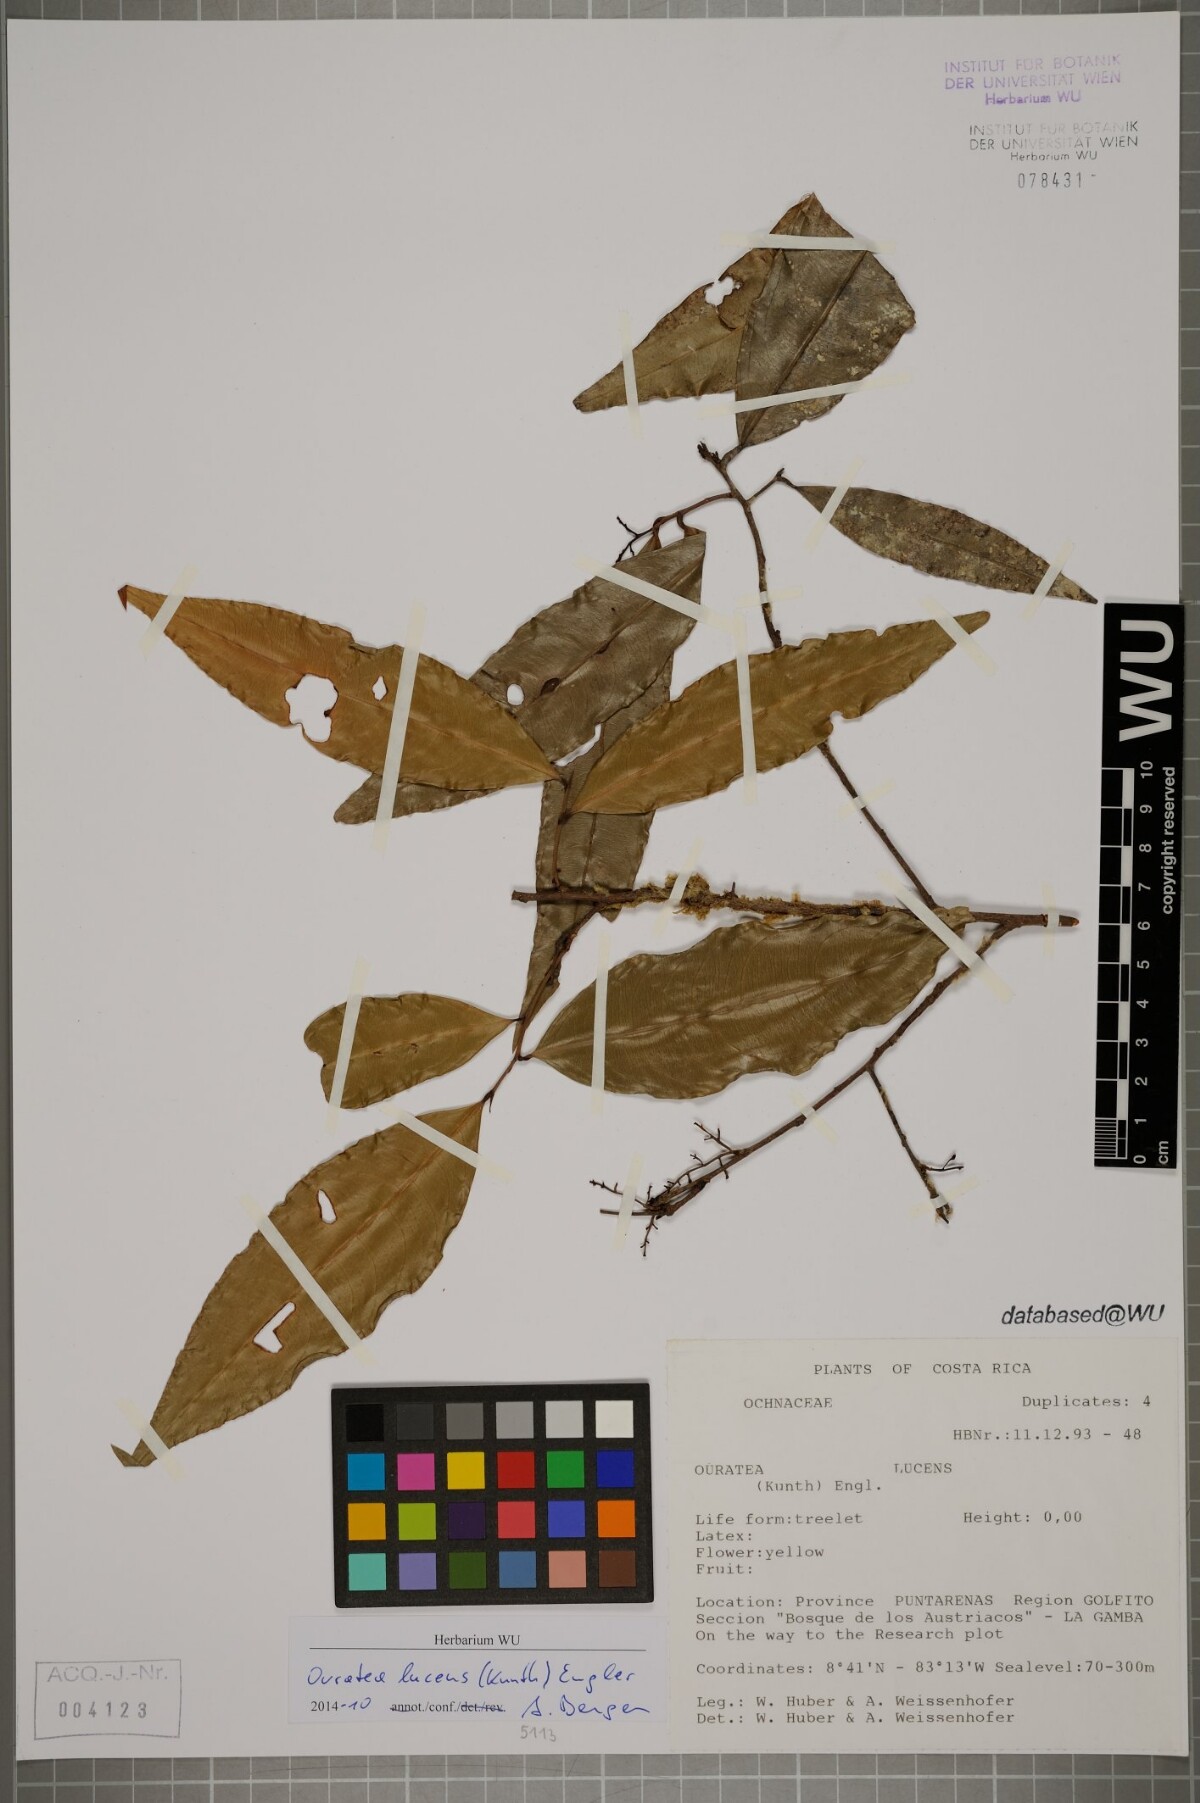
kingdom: Plantae
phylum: Tracheophyta
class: Magnoliopsida
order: Malpighiales
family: Ochnaceae
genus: Ouratea
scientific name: Ouratea lucens
